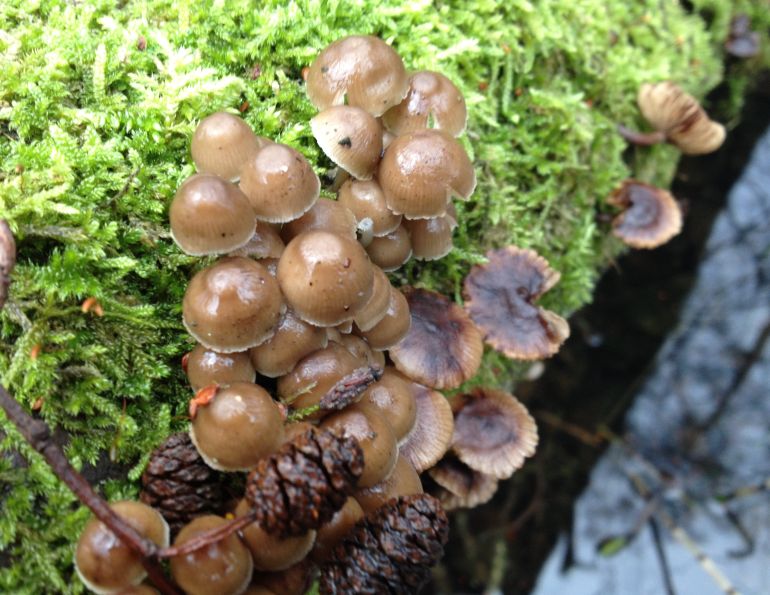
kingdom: Fungi
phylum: Basidiomycota
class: Agaricomycetes
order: Agaricales
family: Mycenaceae
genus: Mycena
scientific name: Mycena tintinnabulum
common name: vinter-huesvamp
